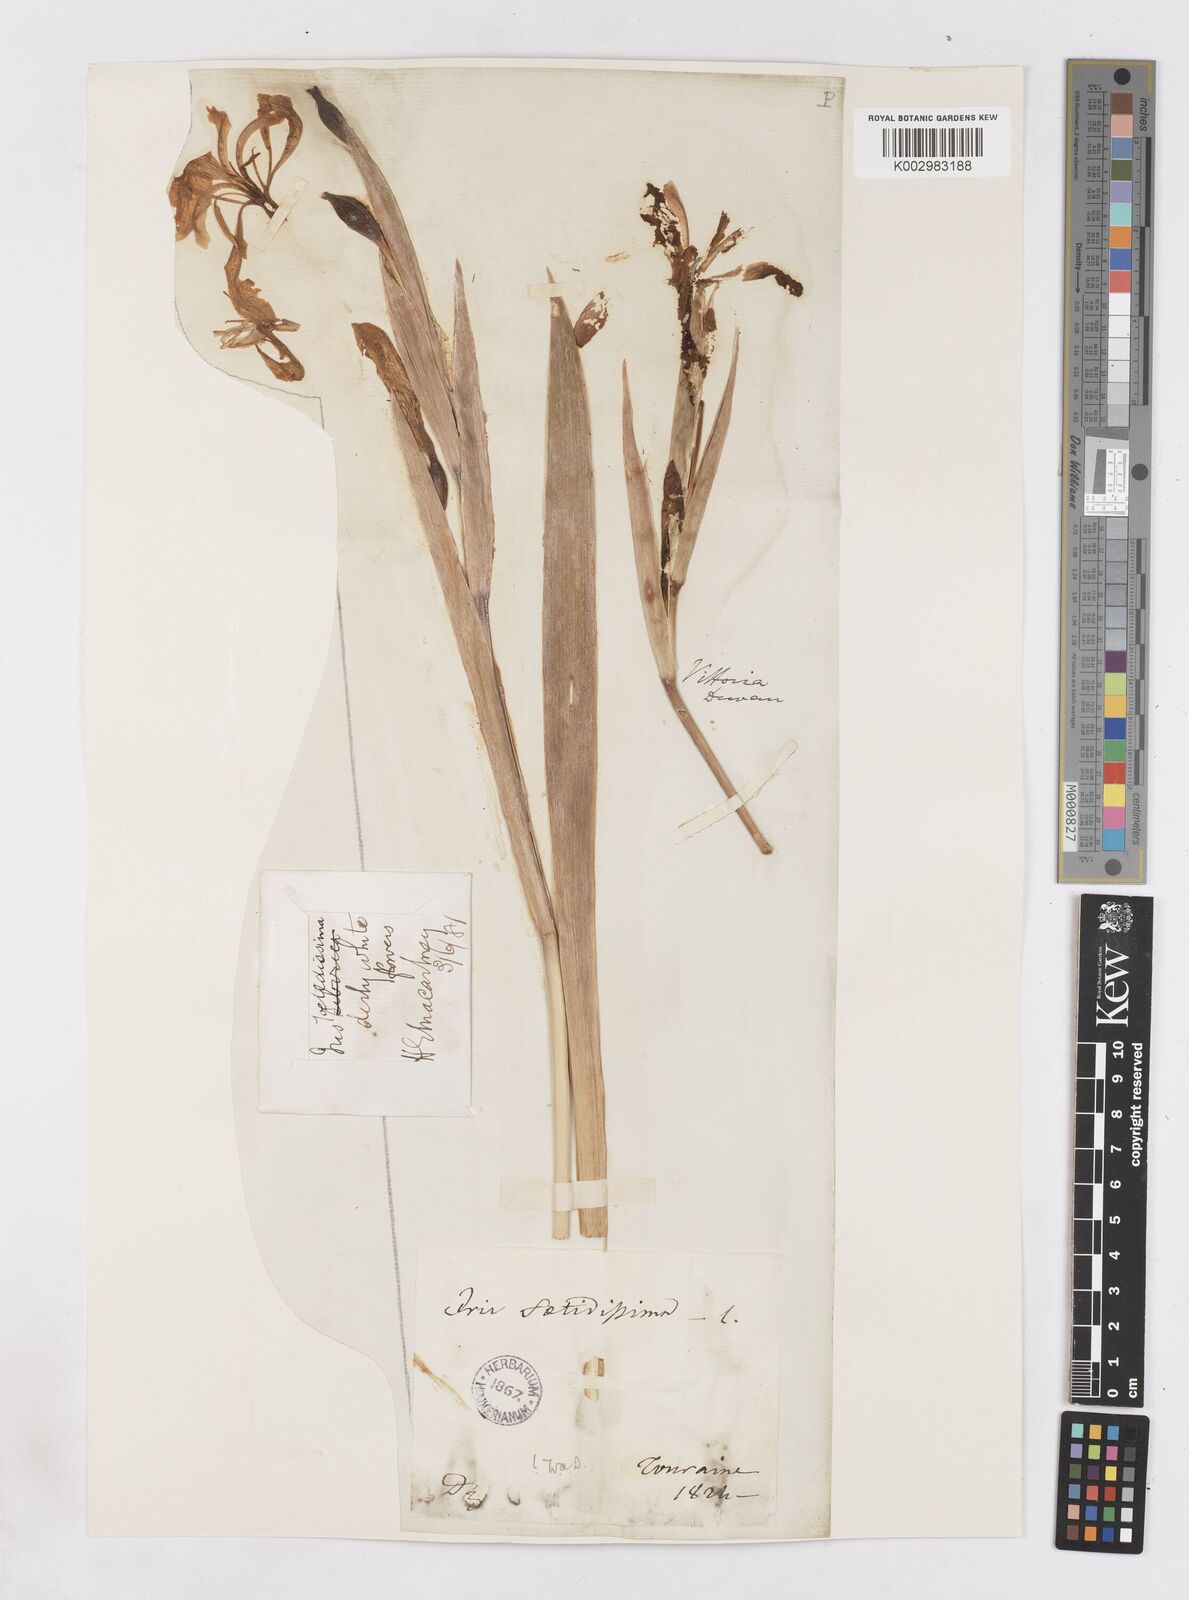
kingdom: Plantae
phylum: Tracheophyta
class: Liliopsida
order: Asparagales
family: Iridaceae
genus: Iris
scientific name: Iris foetidissima
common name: Stinking iris
